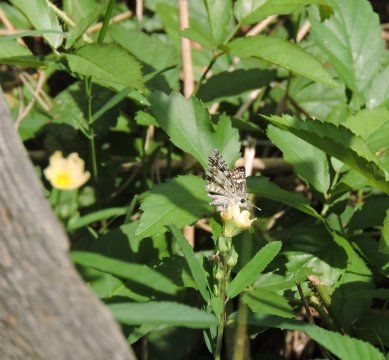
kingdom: Animalia
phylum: Arthropoda
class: Insecta
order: Lepidoptera
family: Hesperiidae
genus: Pyrgus
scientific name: Pyrgus
